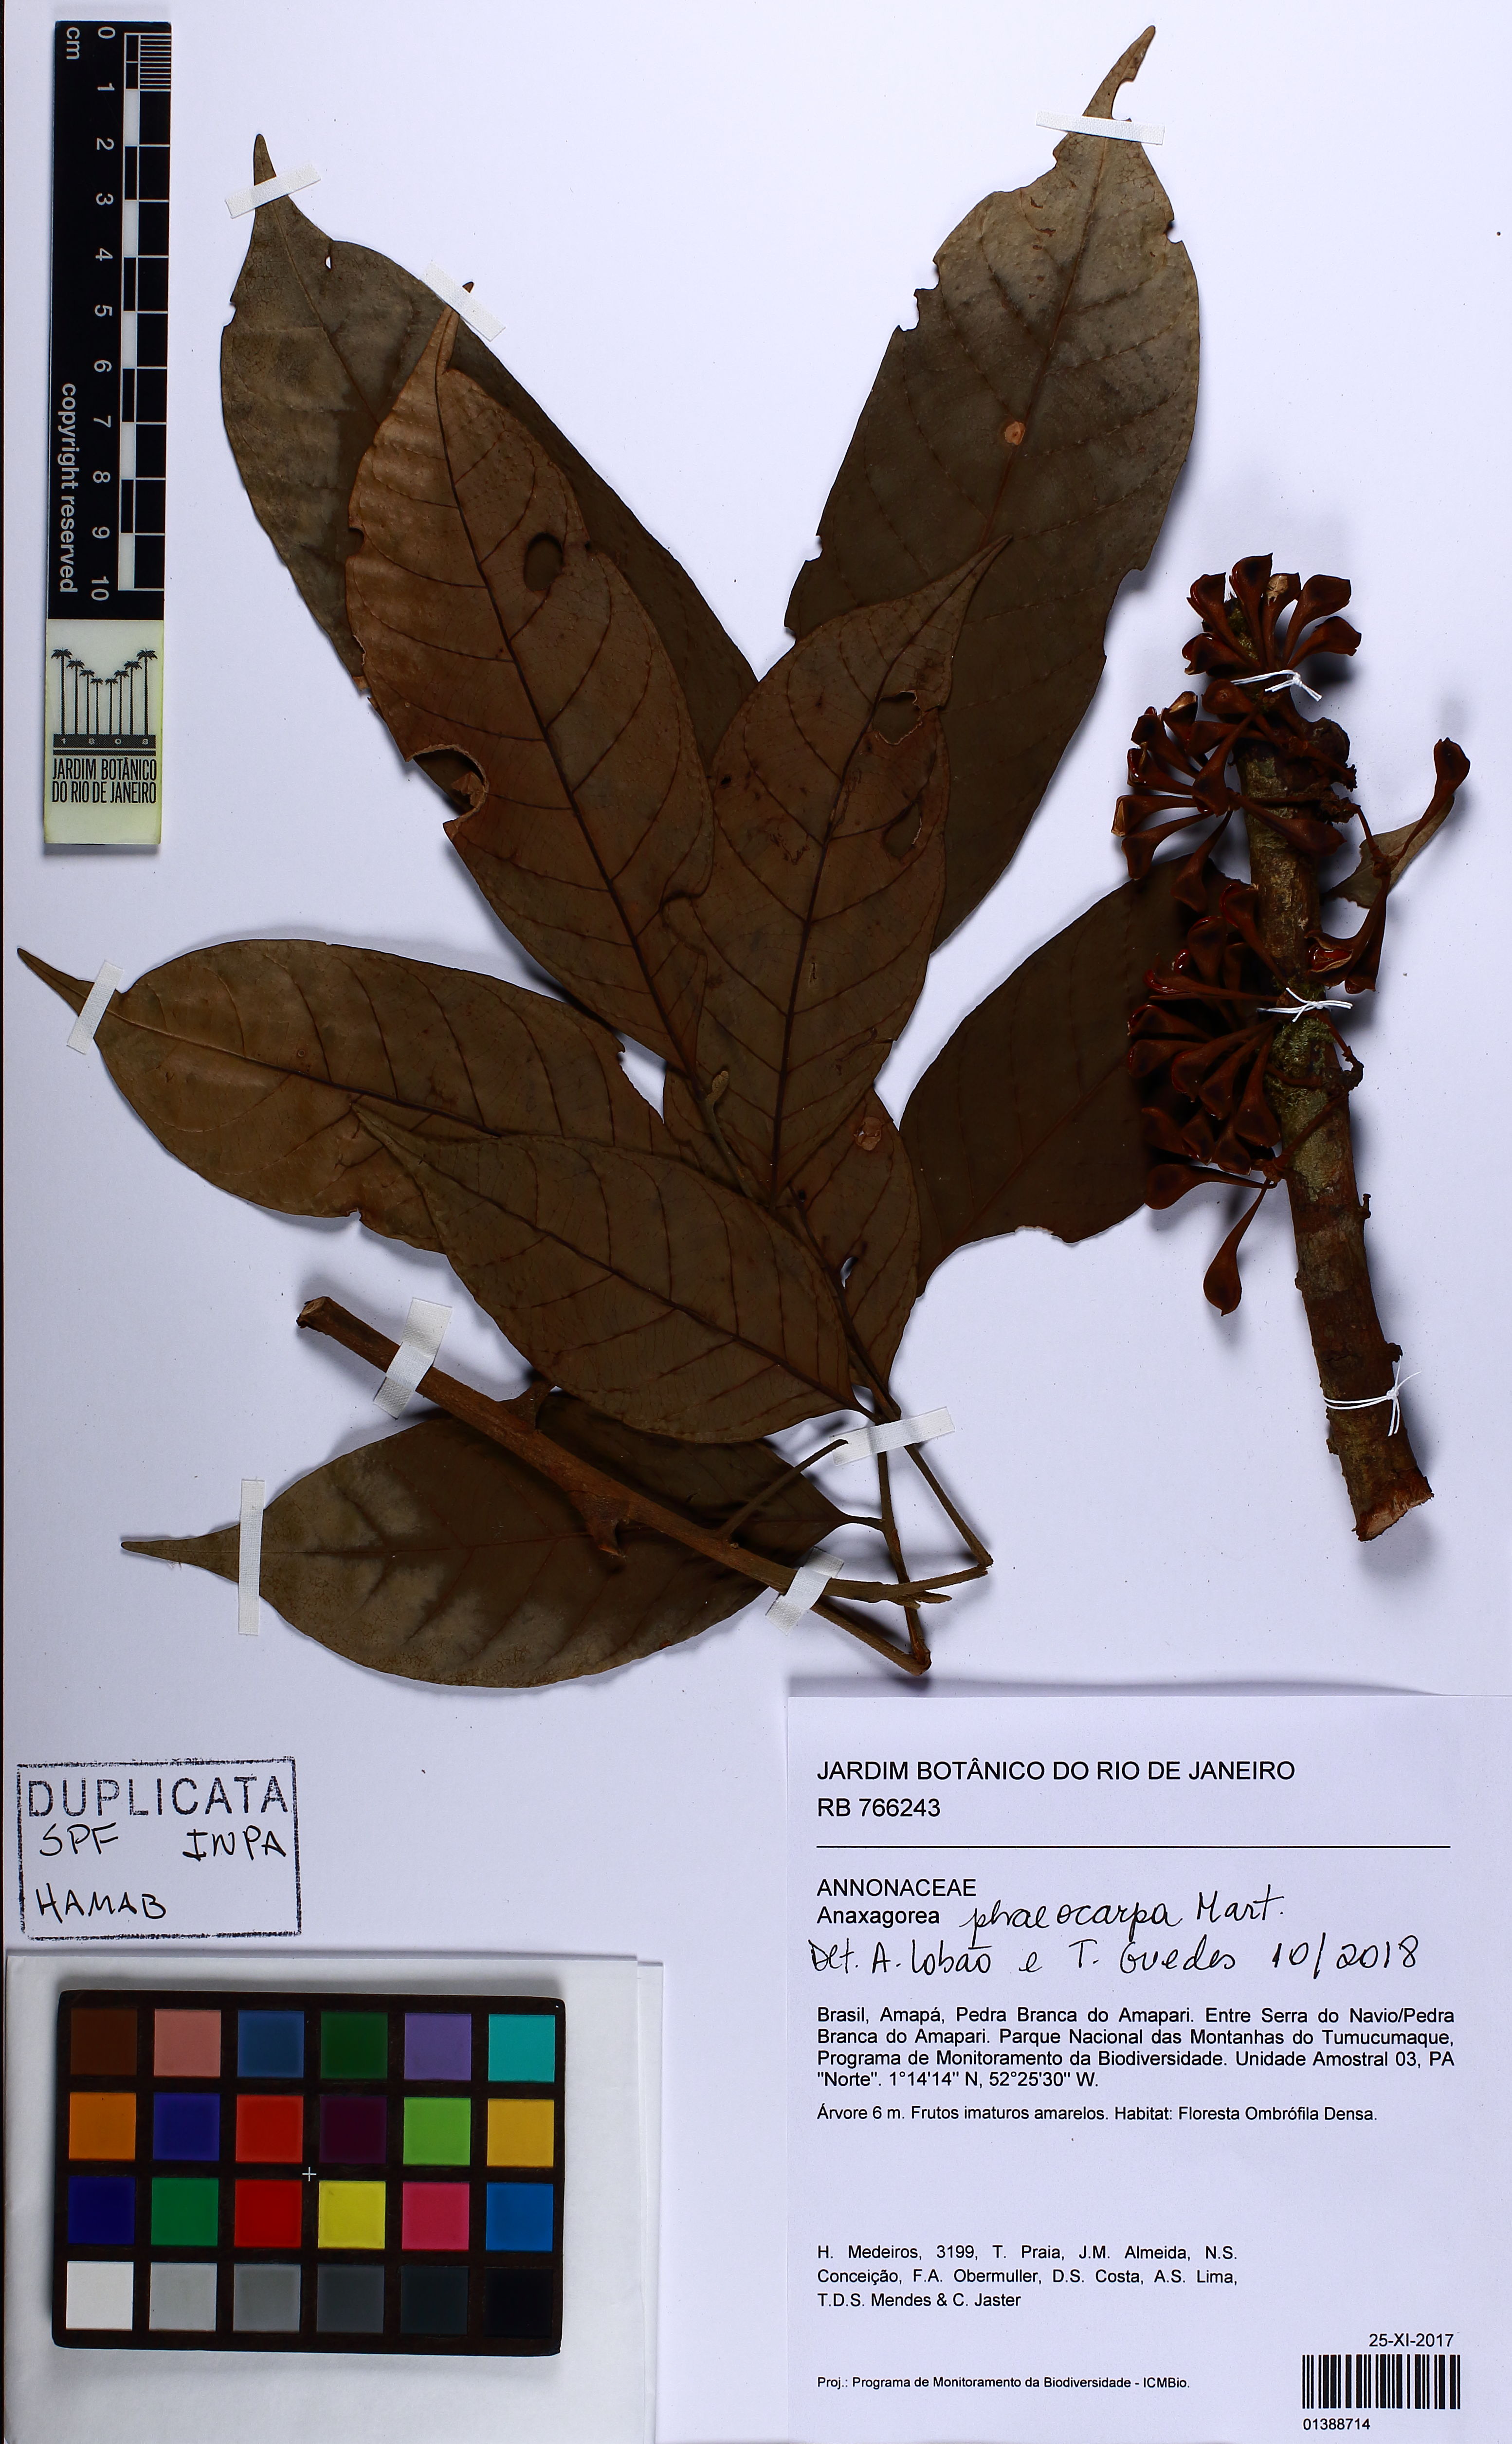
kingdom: Plantae
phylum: Tracheophyta
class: Magnoliopsida
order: Magnoliales
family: Annonaceae
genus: Anaxagorea
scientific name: Anaxagorea phaeocarpa
